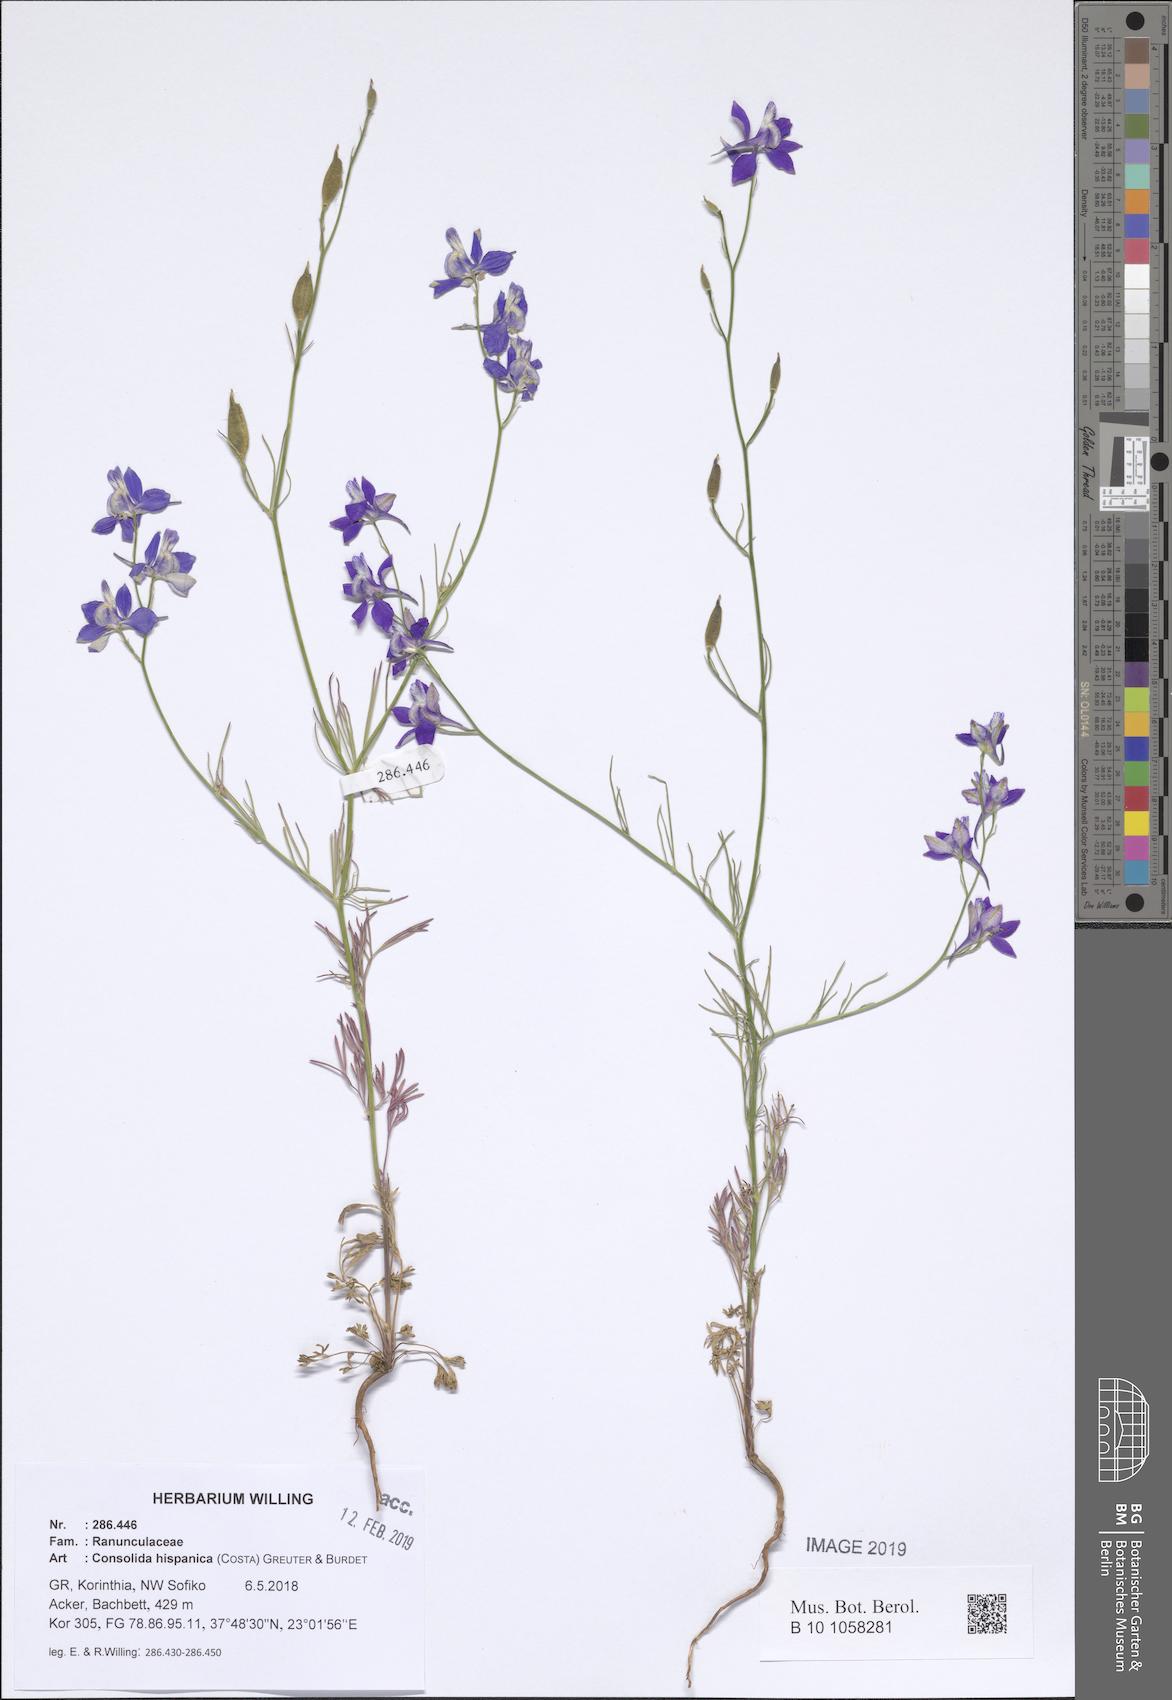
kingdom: Plantae
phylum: Tracheophyta
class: Magnoliopsida
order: Ranunculales
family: Ranunculaceae
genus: Delphinium
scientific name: Delphinium hispanicum
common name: Oriental knight's-spur
